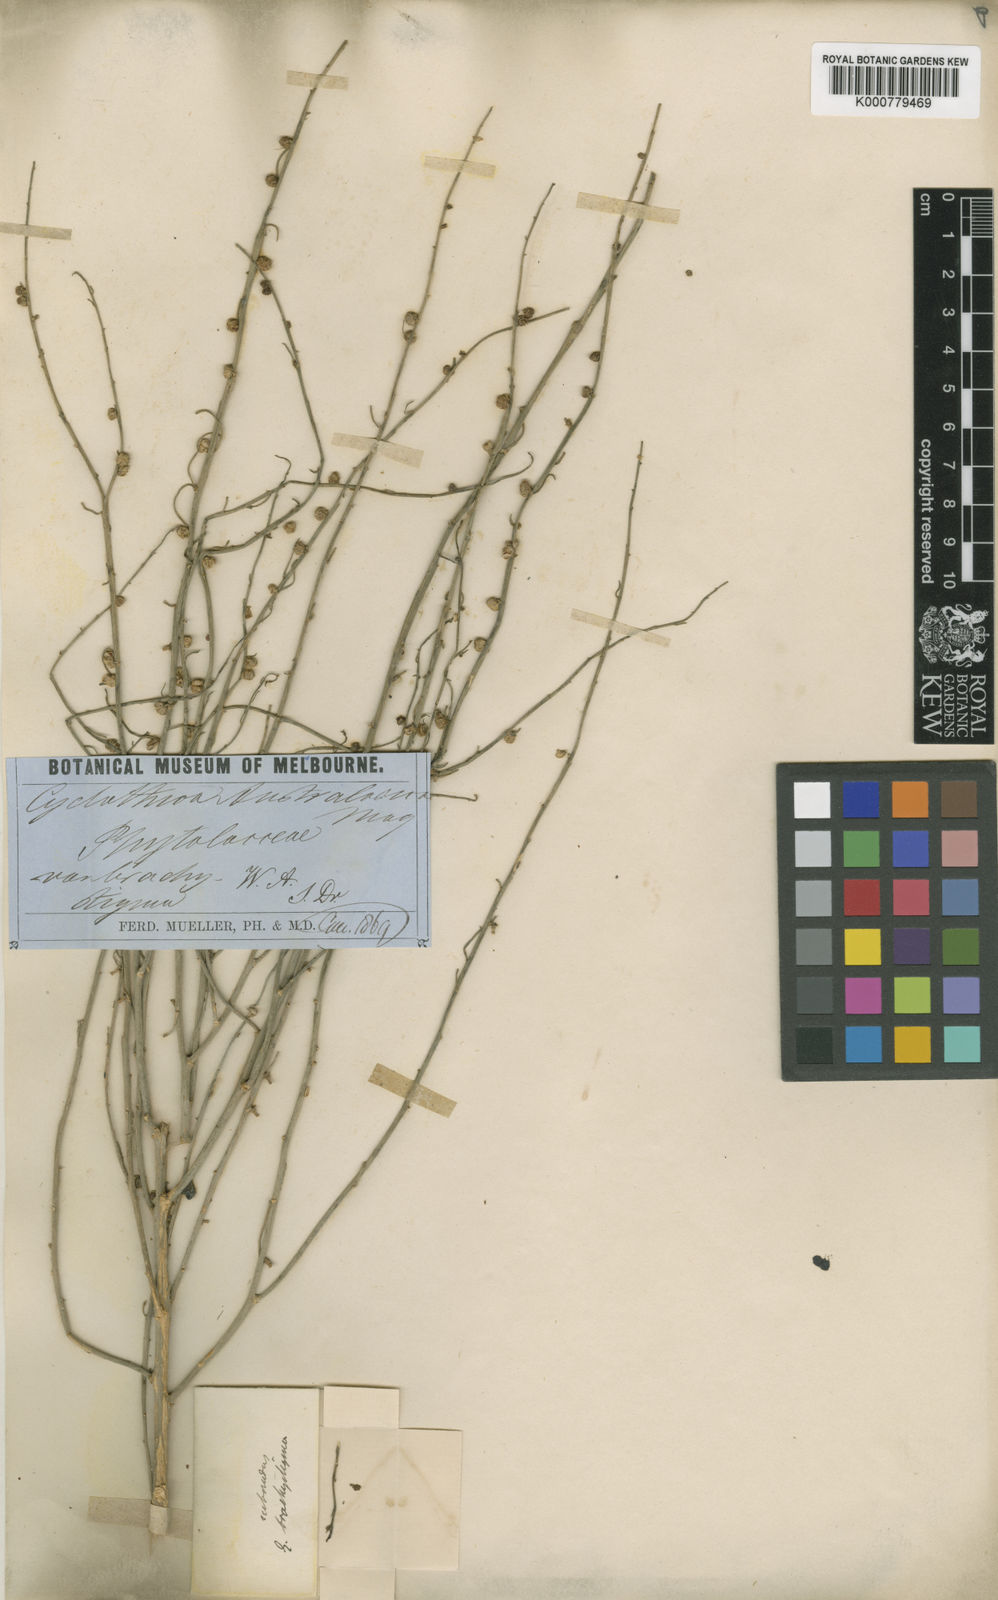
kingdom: Plantae
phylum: Tracheophyta
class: Magnoliopsida
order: Brassicales
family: Gyrostemonaceae
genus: Gyrostemon
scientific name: Gyrostemon
